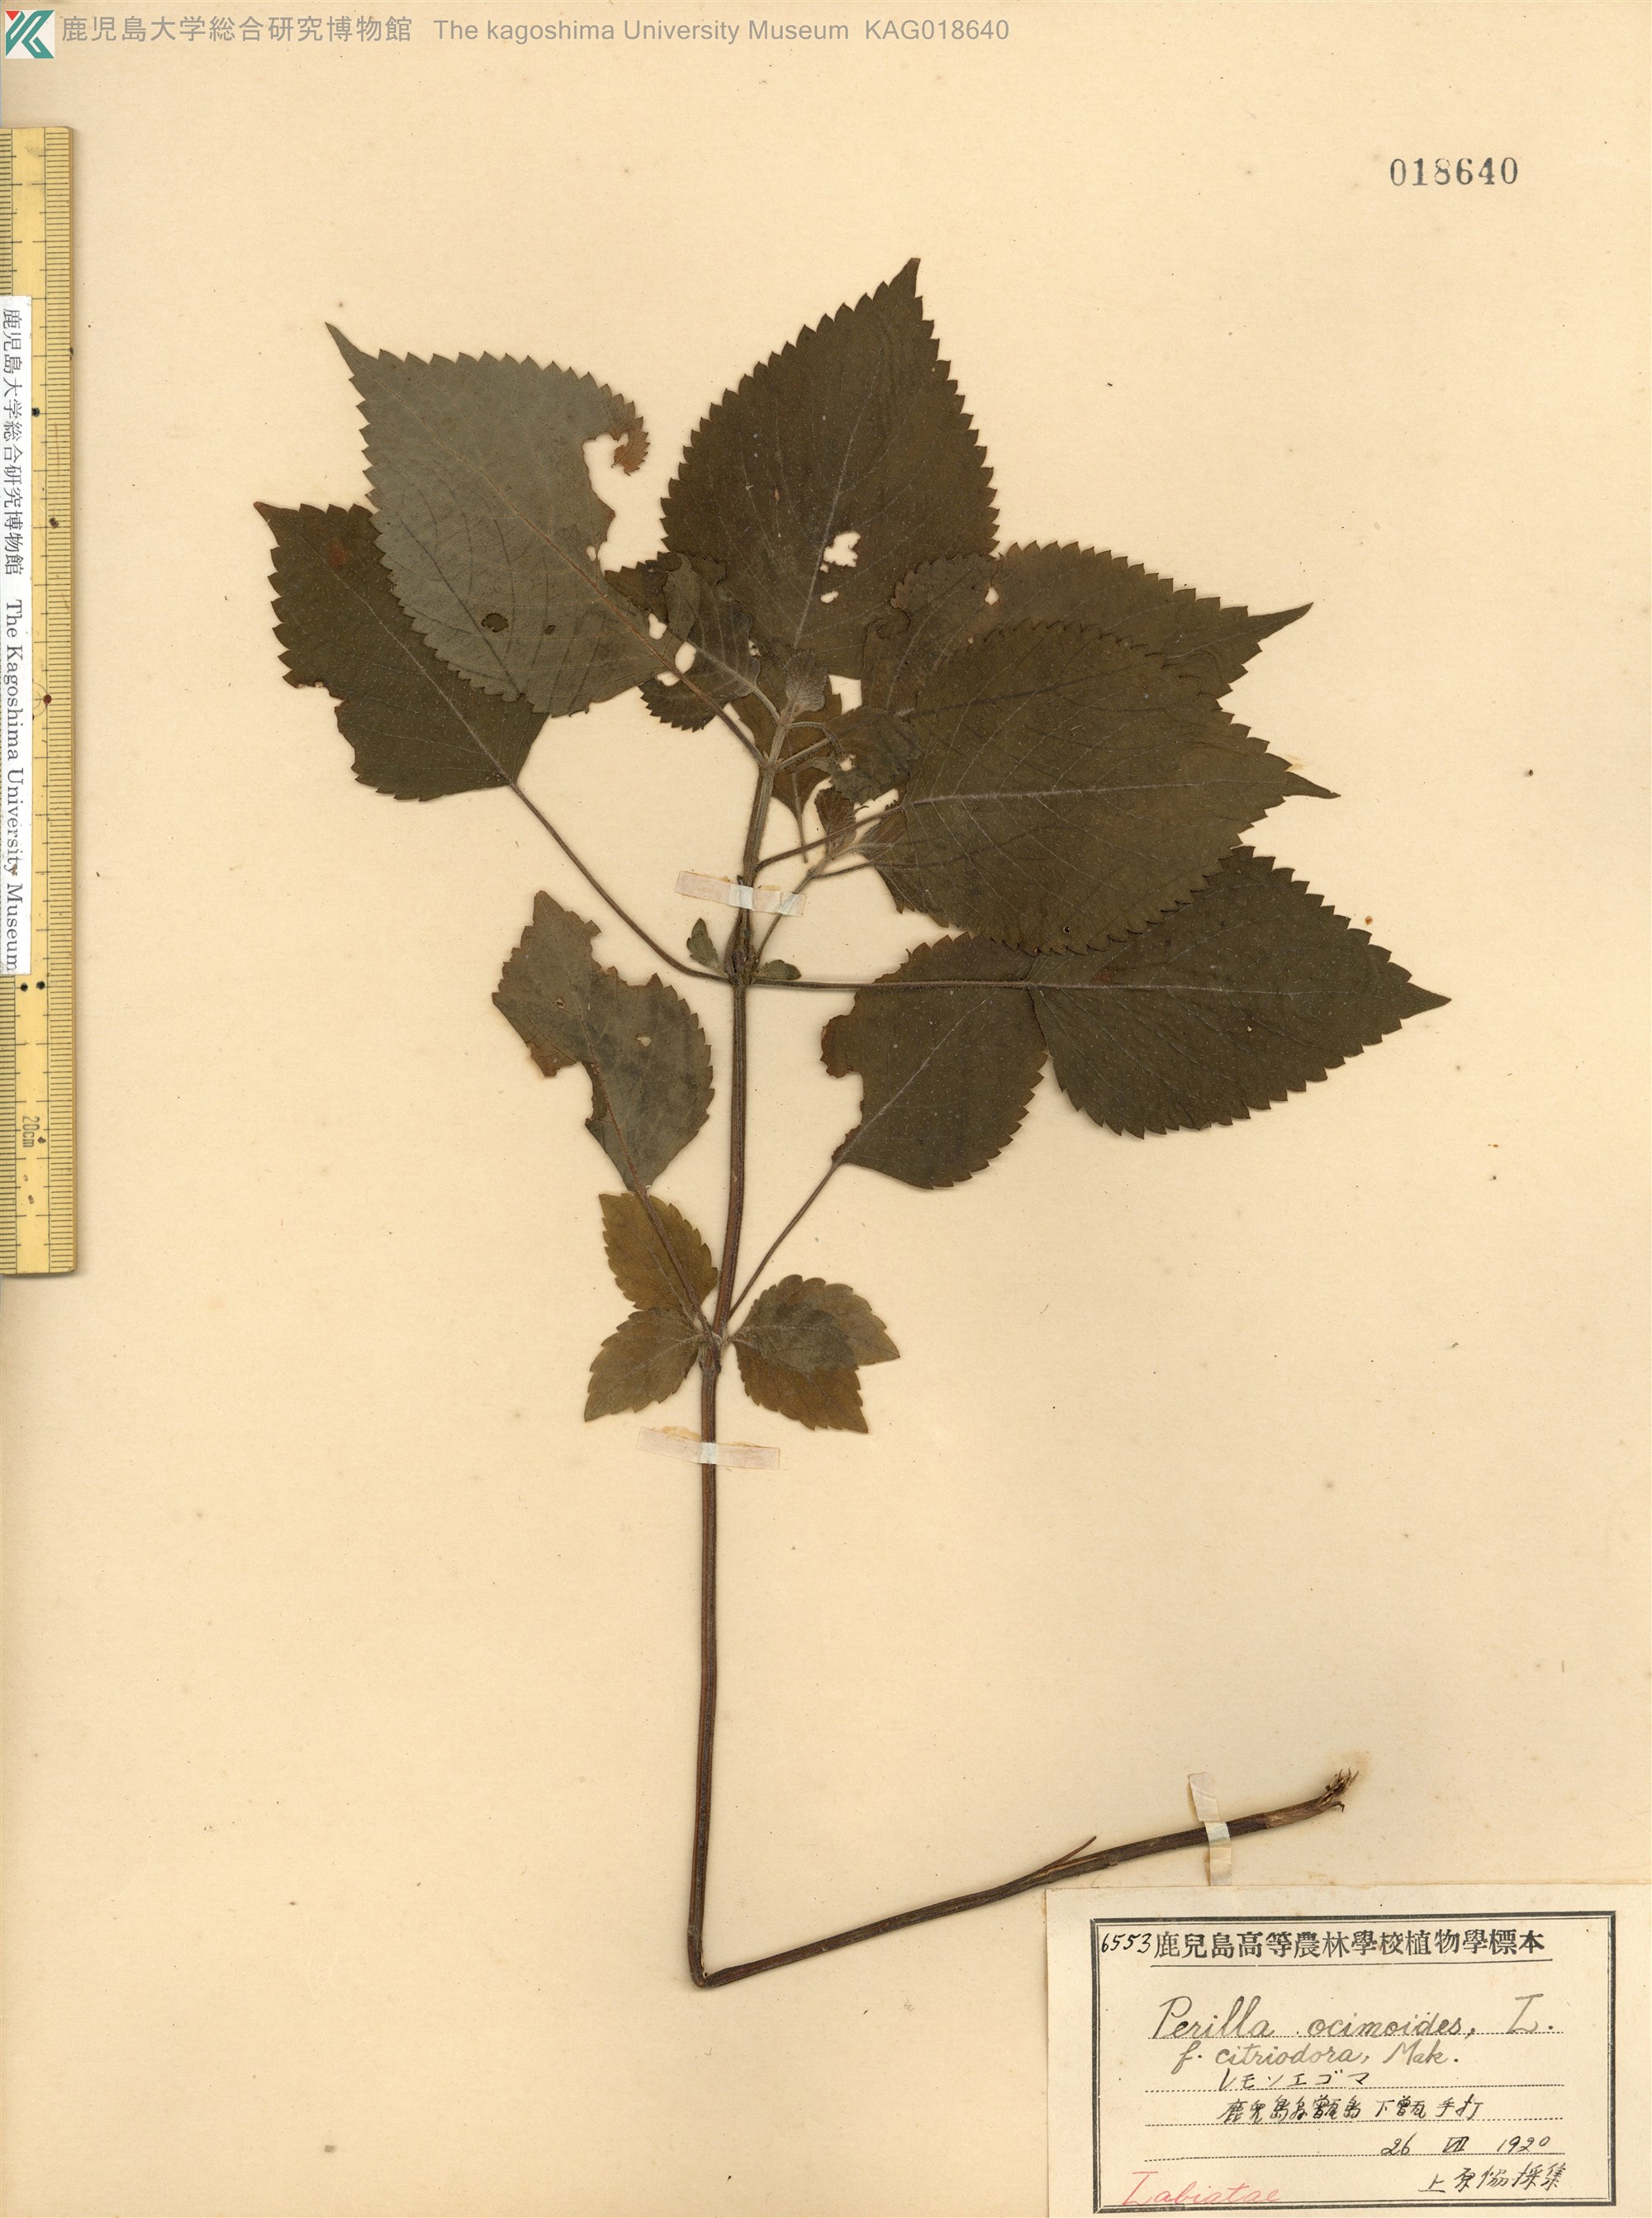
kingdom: Plantae
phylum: Tracheophyta
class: Magnoliopsida
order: Lamiales
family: Lamiaceae
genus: Perilla
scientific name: Perilla frutescens
